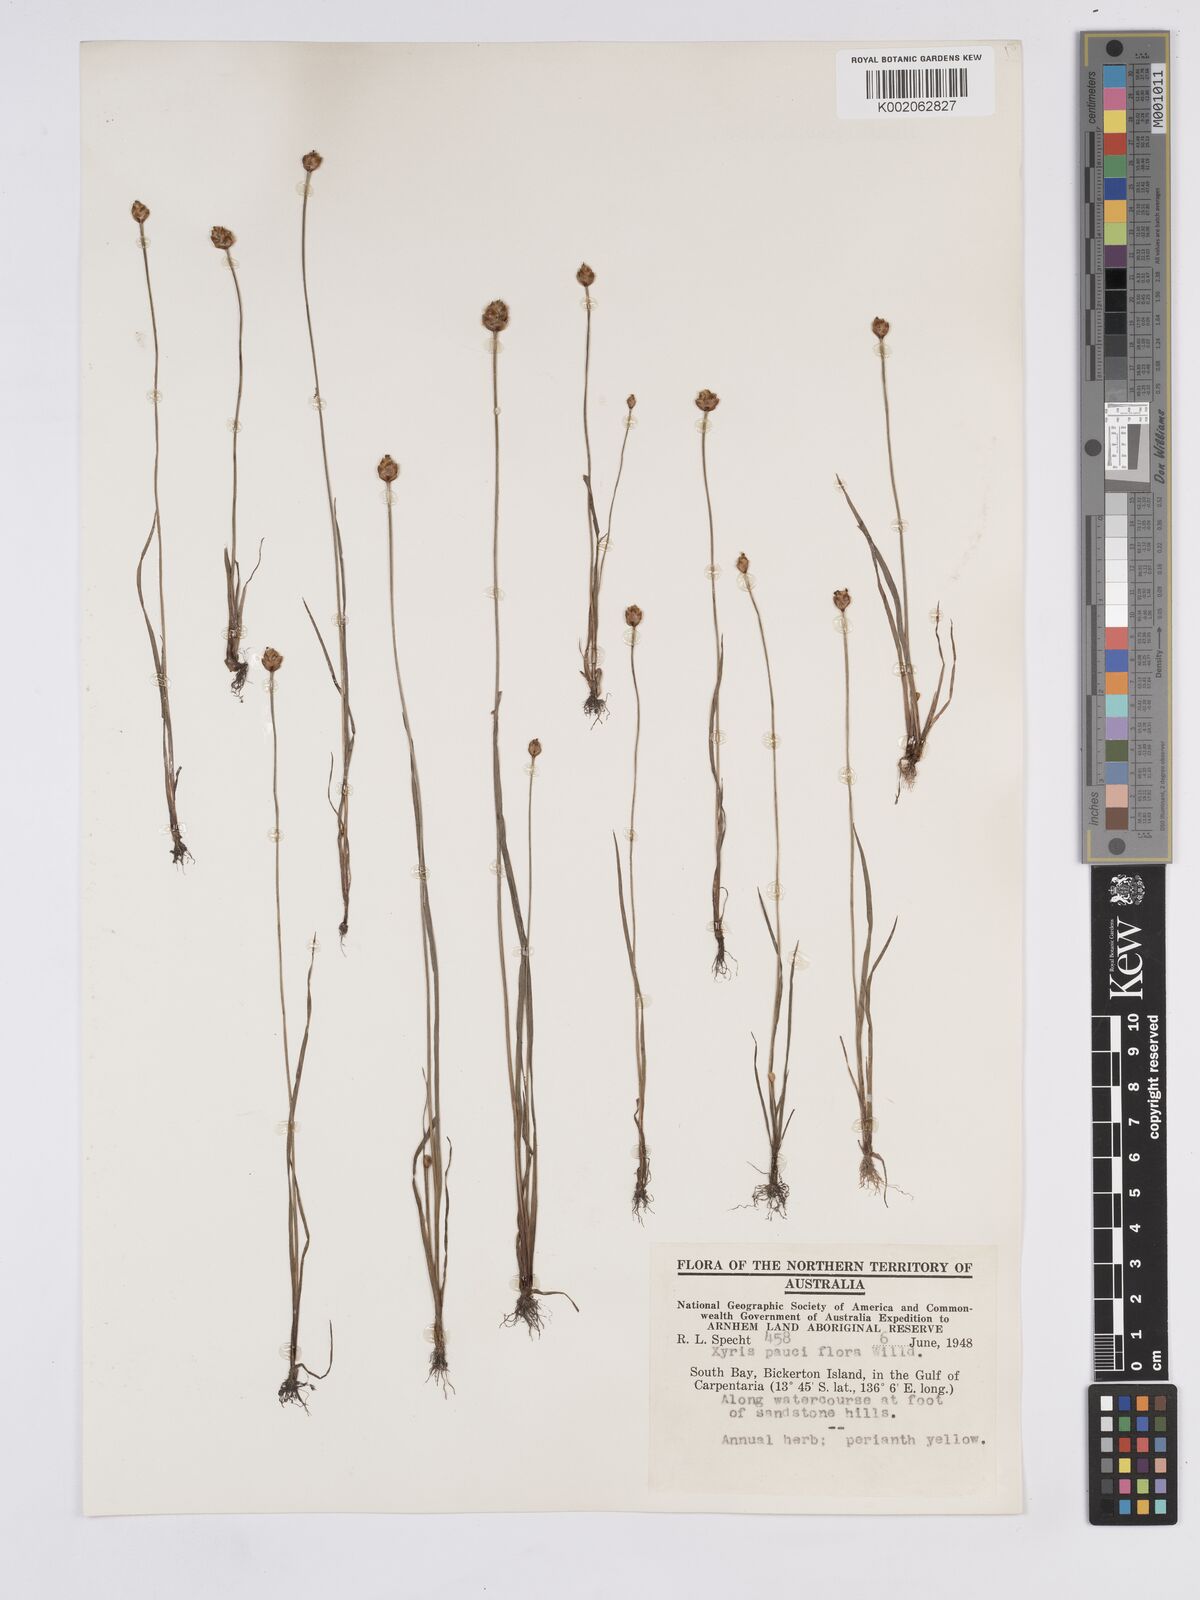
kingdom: Plantae
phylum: Tracheophyta
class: Liliopsida
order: Poales
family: Xyridaceae
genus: Xyris
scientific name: Xyris pauciflora
